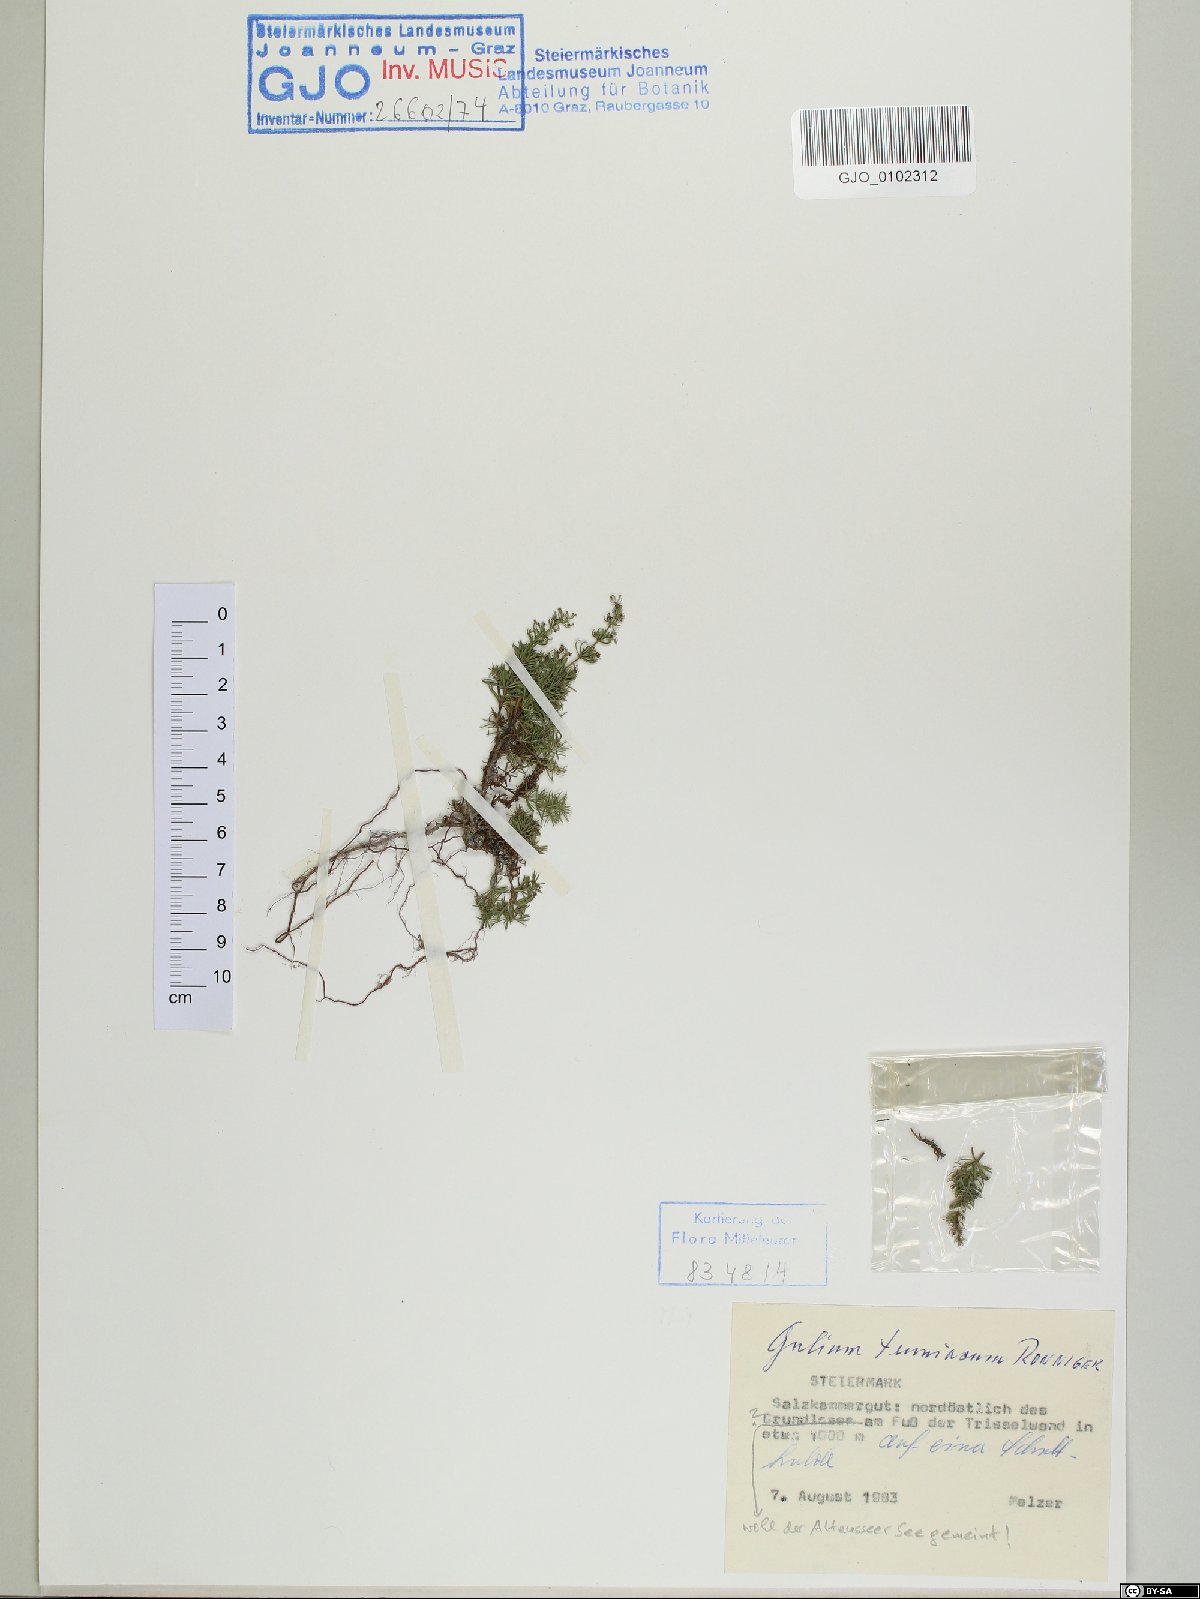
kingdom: Plantae
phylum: Tracheophyta
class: Magnoliopsida
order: Gentianales
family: Rubiaceae
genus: Galium
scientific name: Galium truniacum
